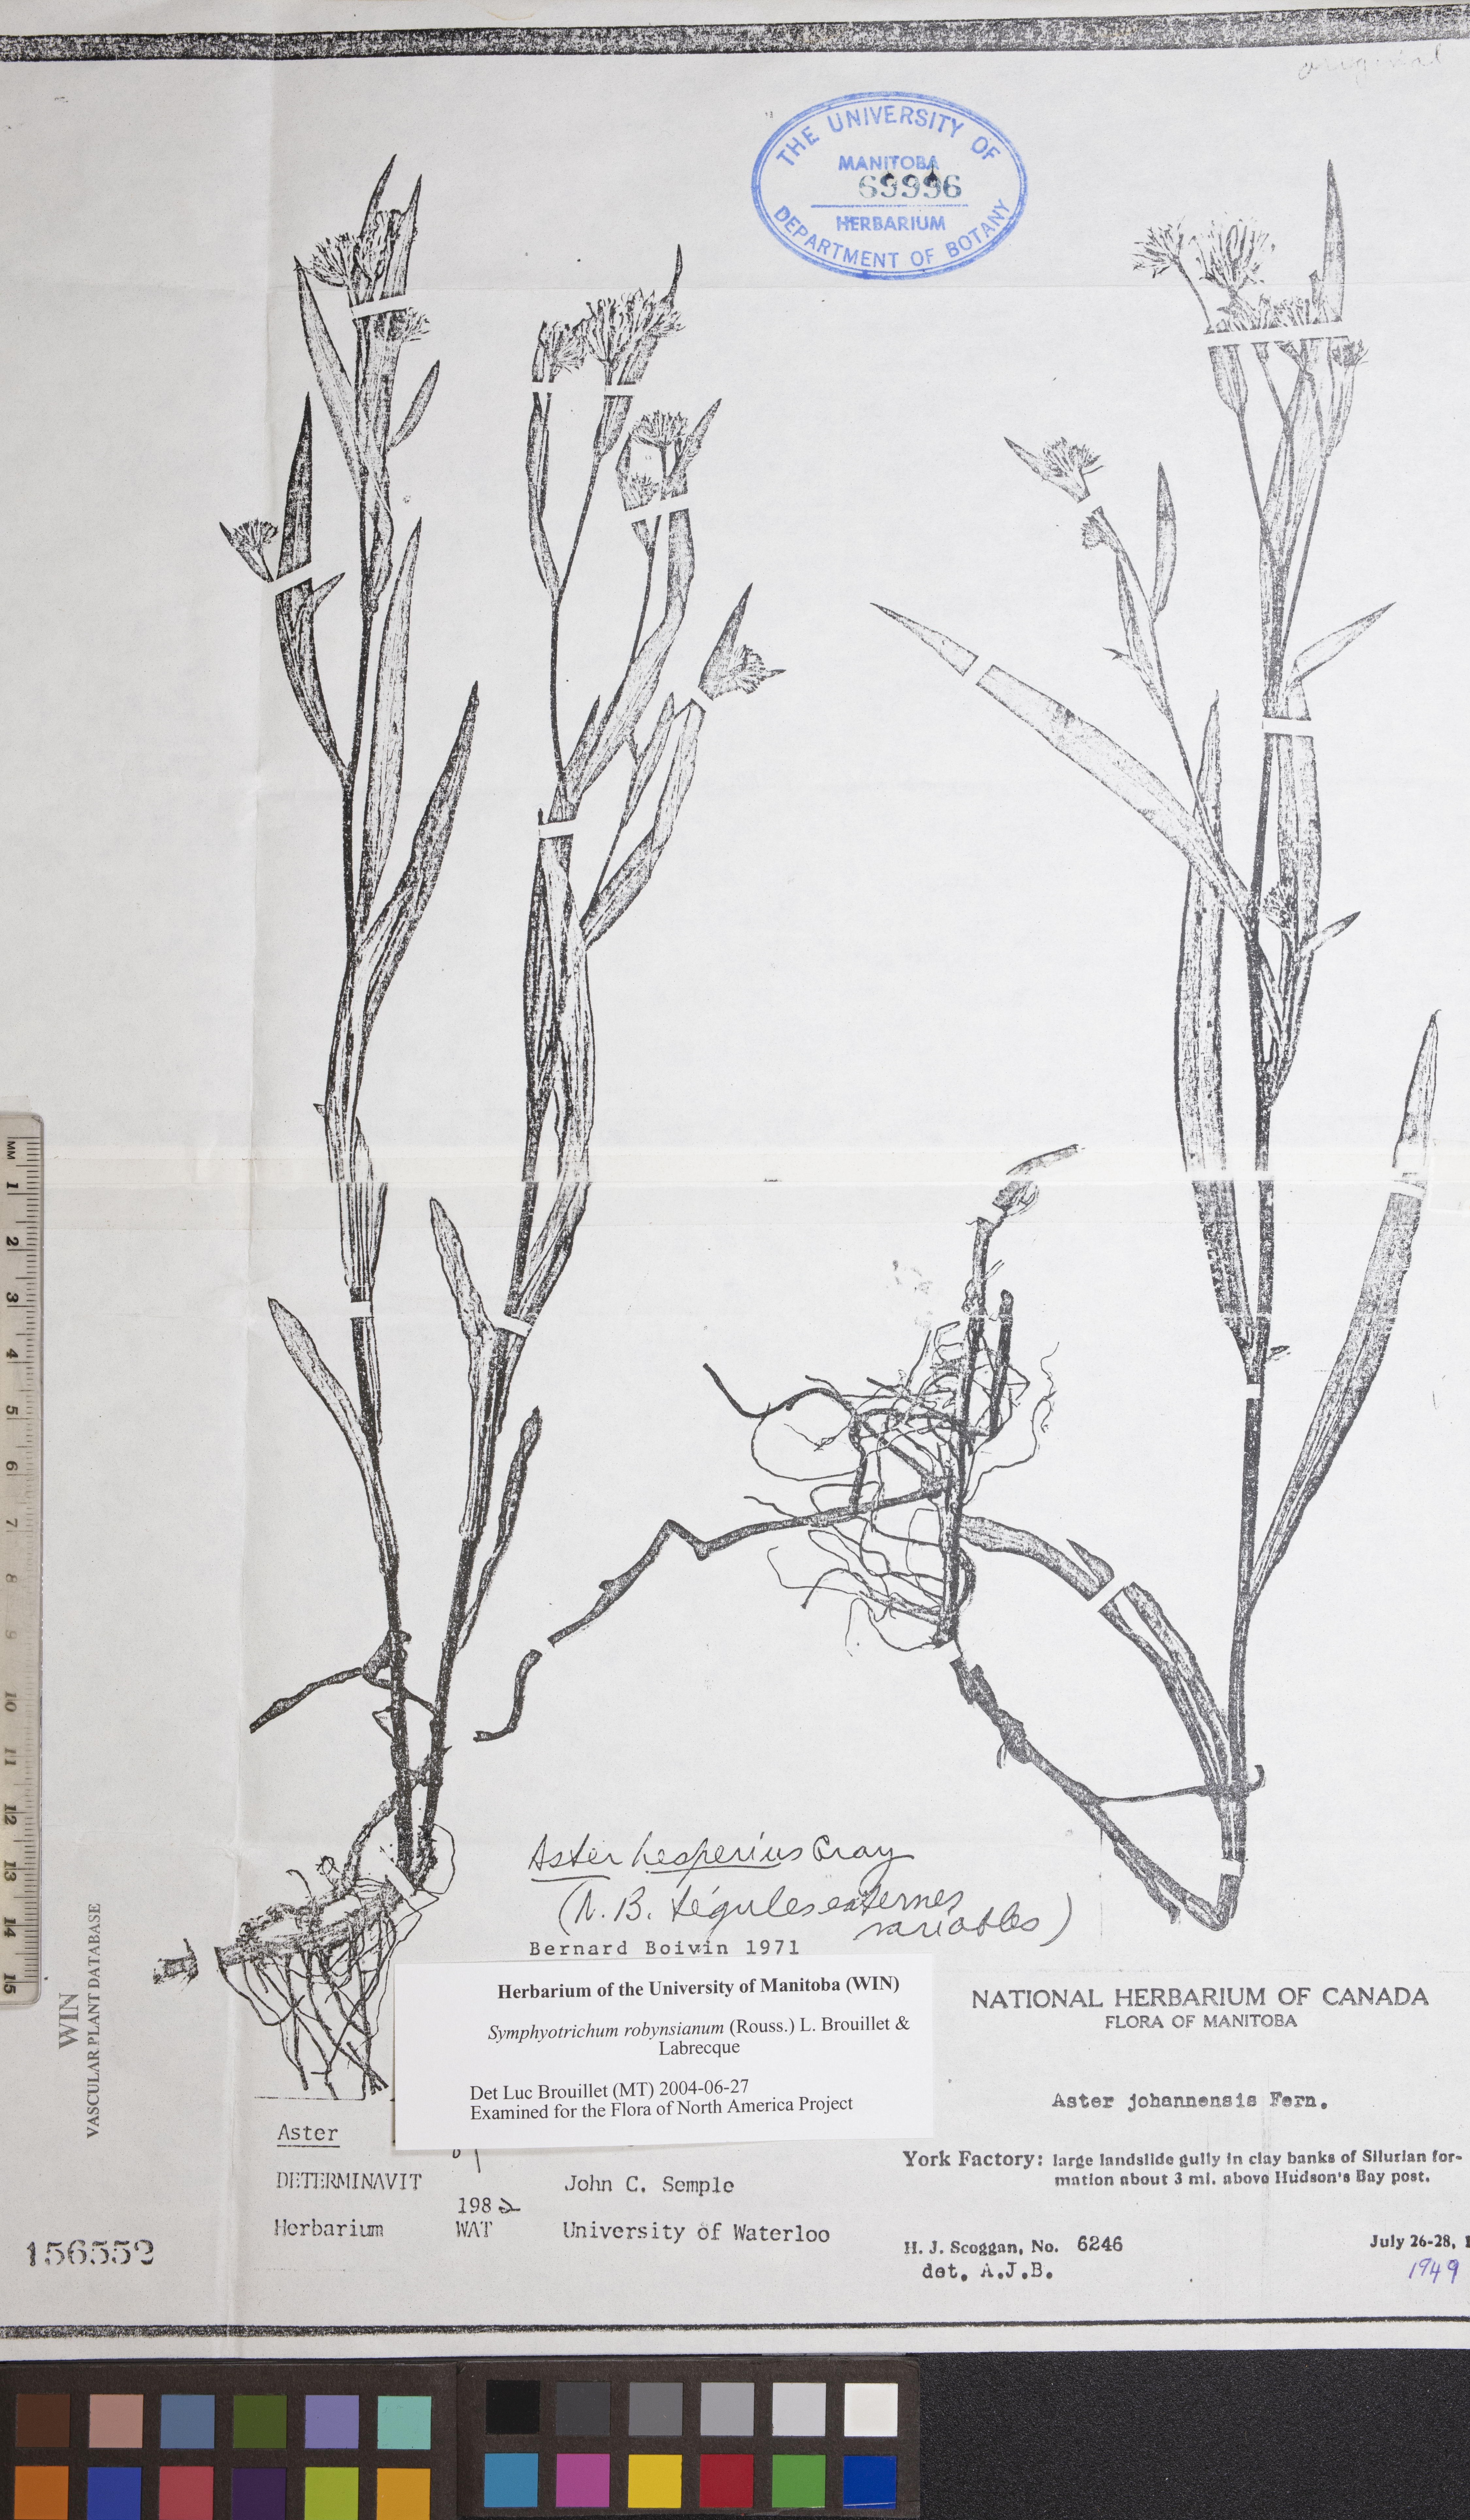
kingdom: Plantae
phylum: Tracheophyta
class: Magnoliopsida
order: Asterales
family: Asteraceae
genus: Symphyotrichum
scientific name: Symphyotrichum robynsianum
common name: Robyns' aster
